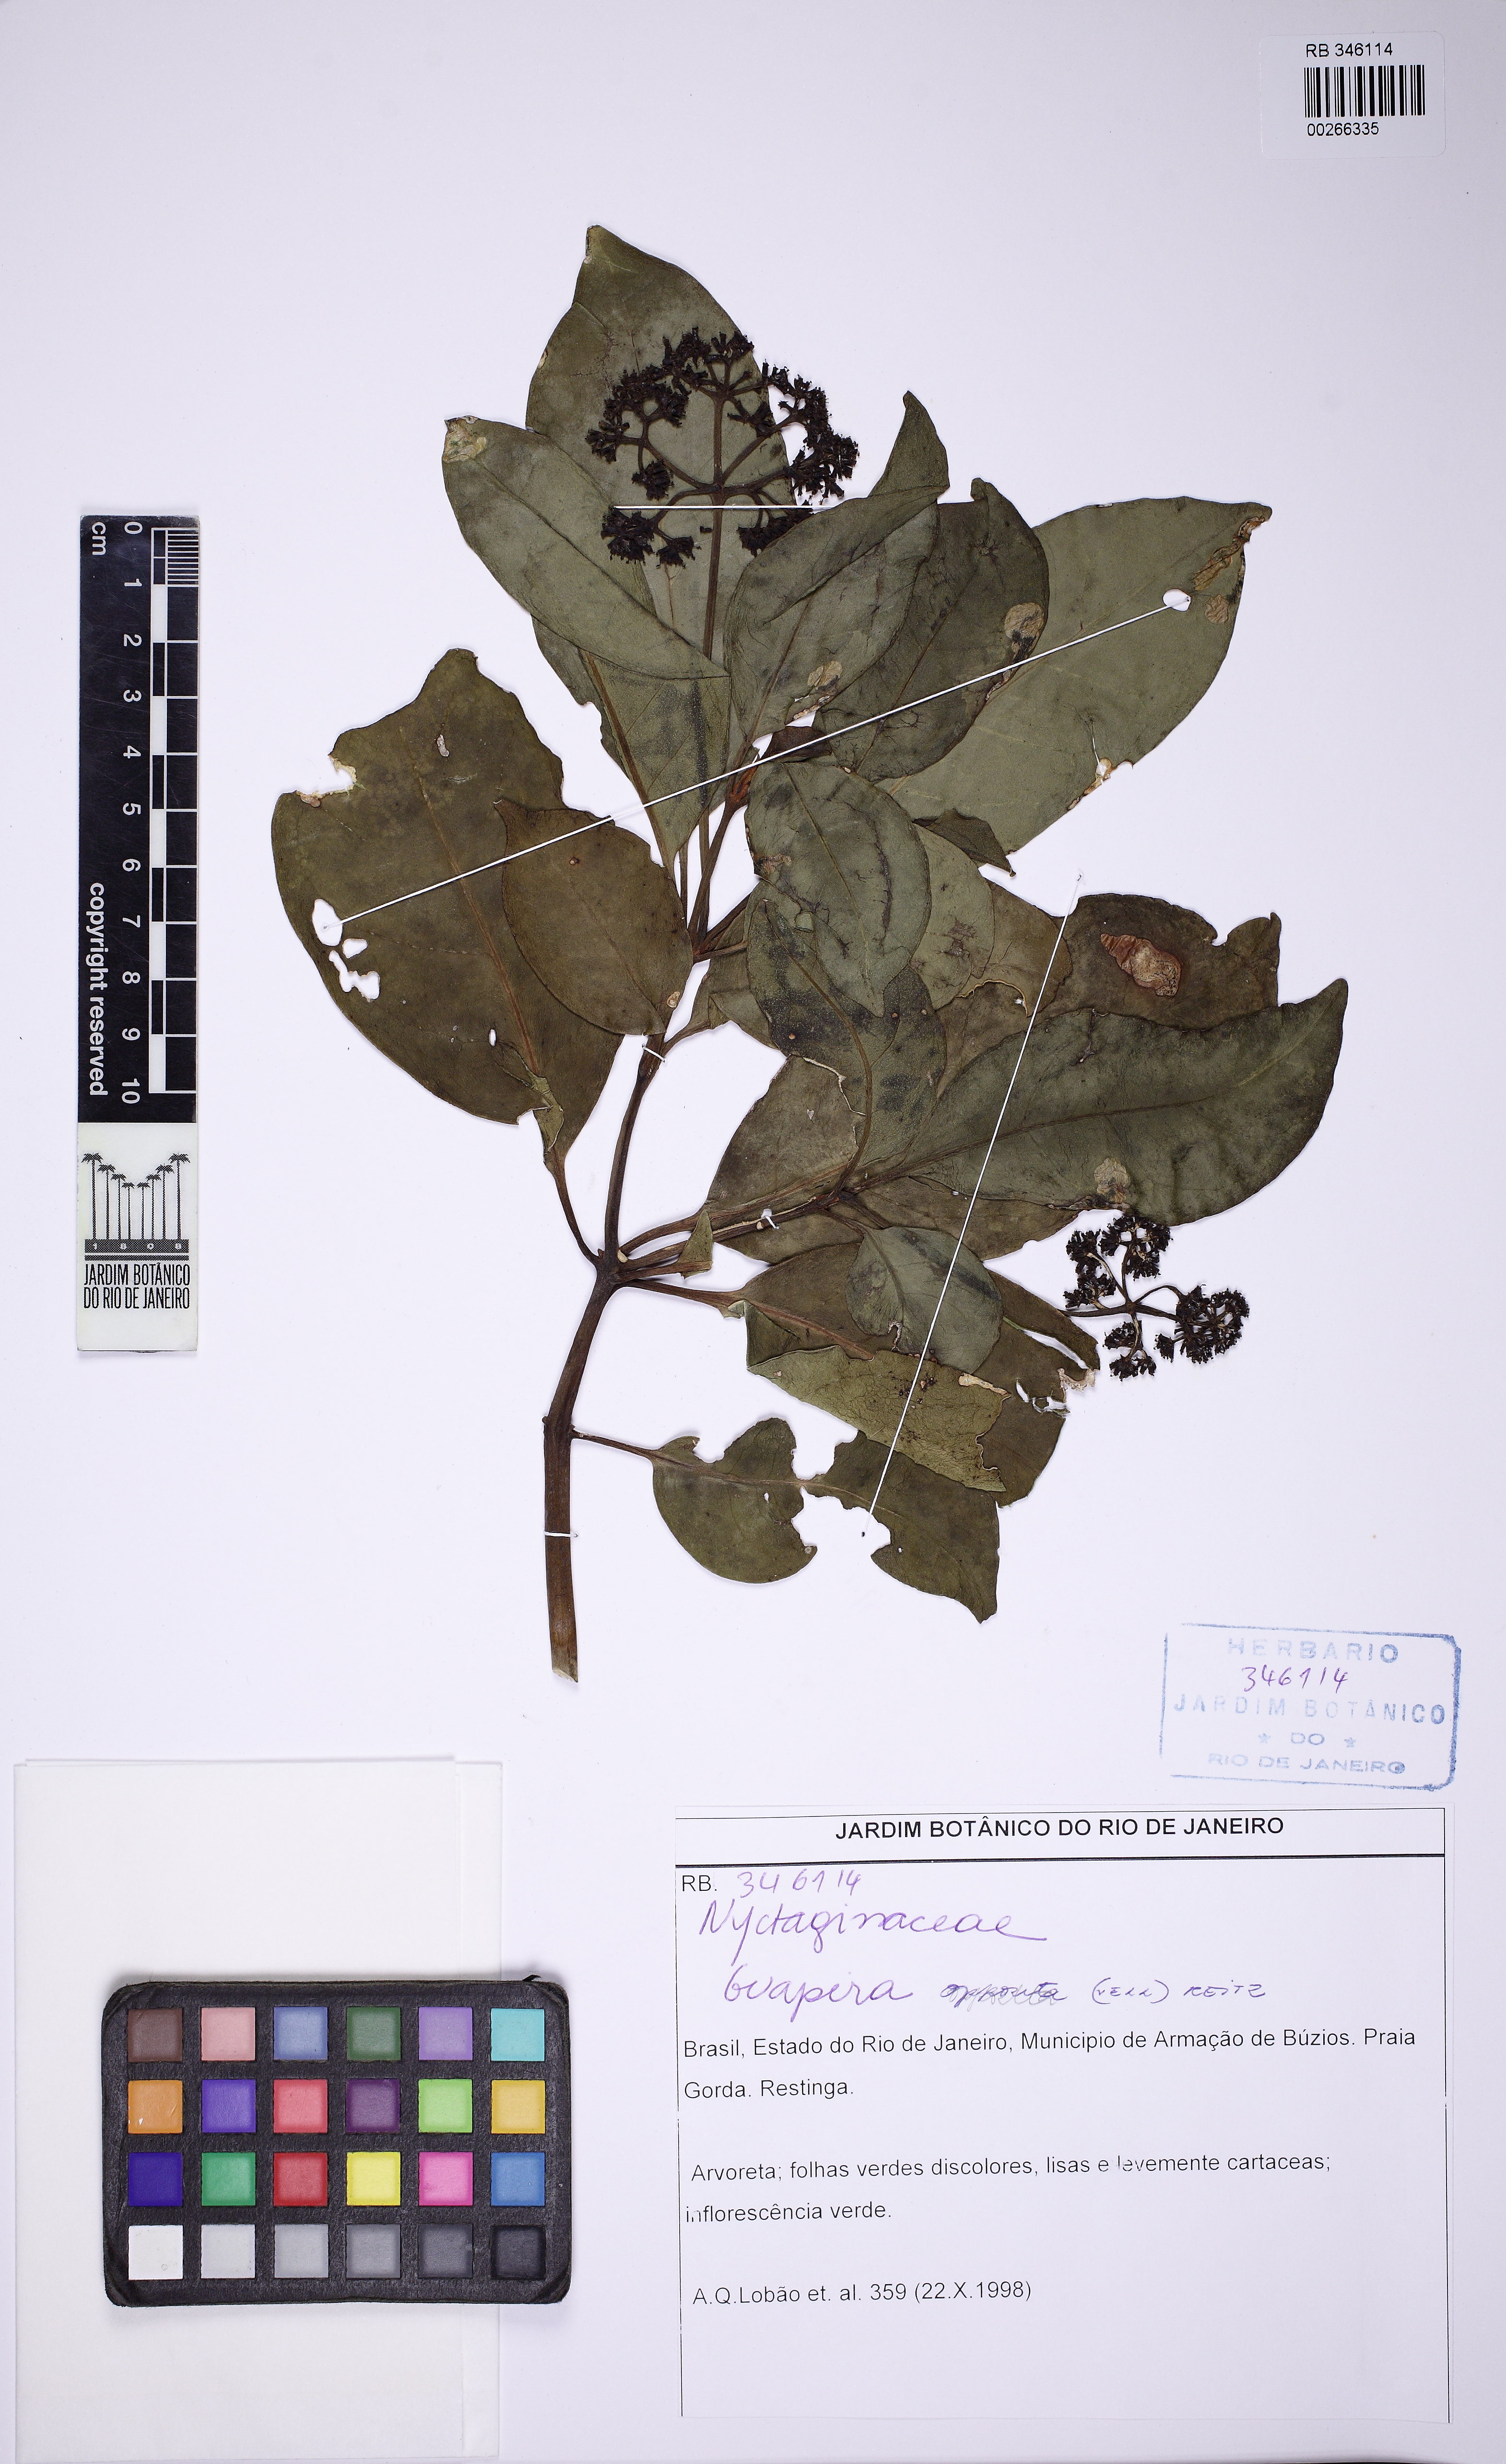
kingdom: Plantae
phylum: Tracheophyta
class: Magnoliopsida
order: Caryophyllales
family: Nyctaginaceae
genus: Guapira
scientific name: Guapira opposita
